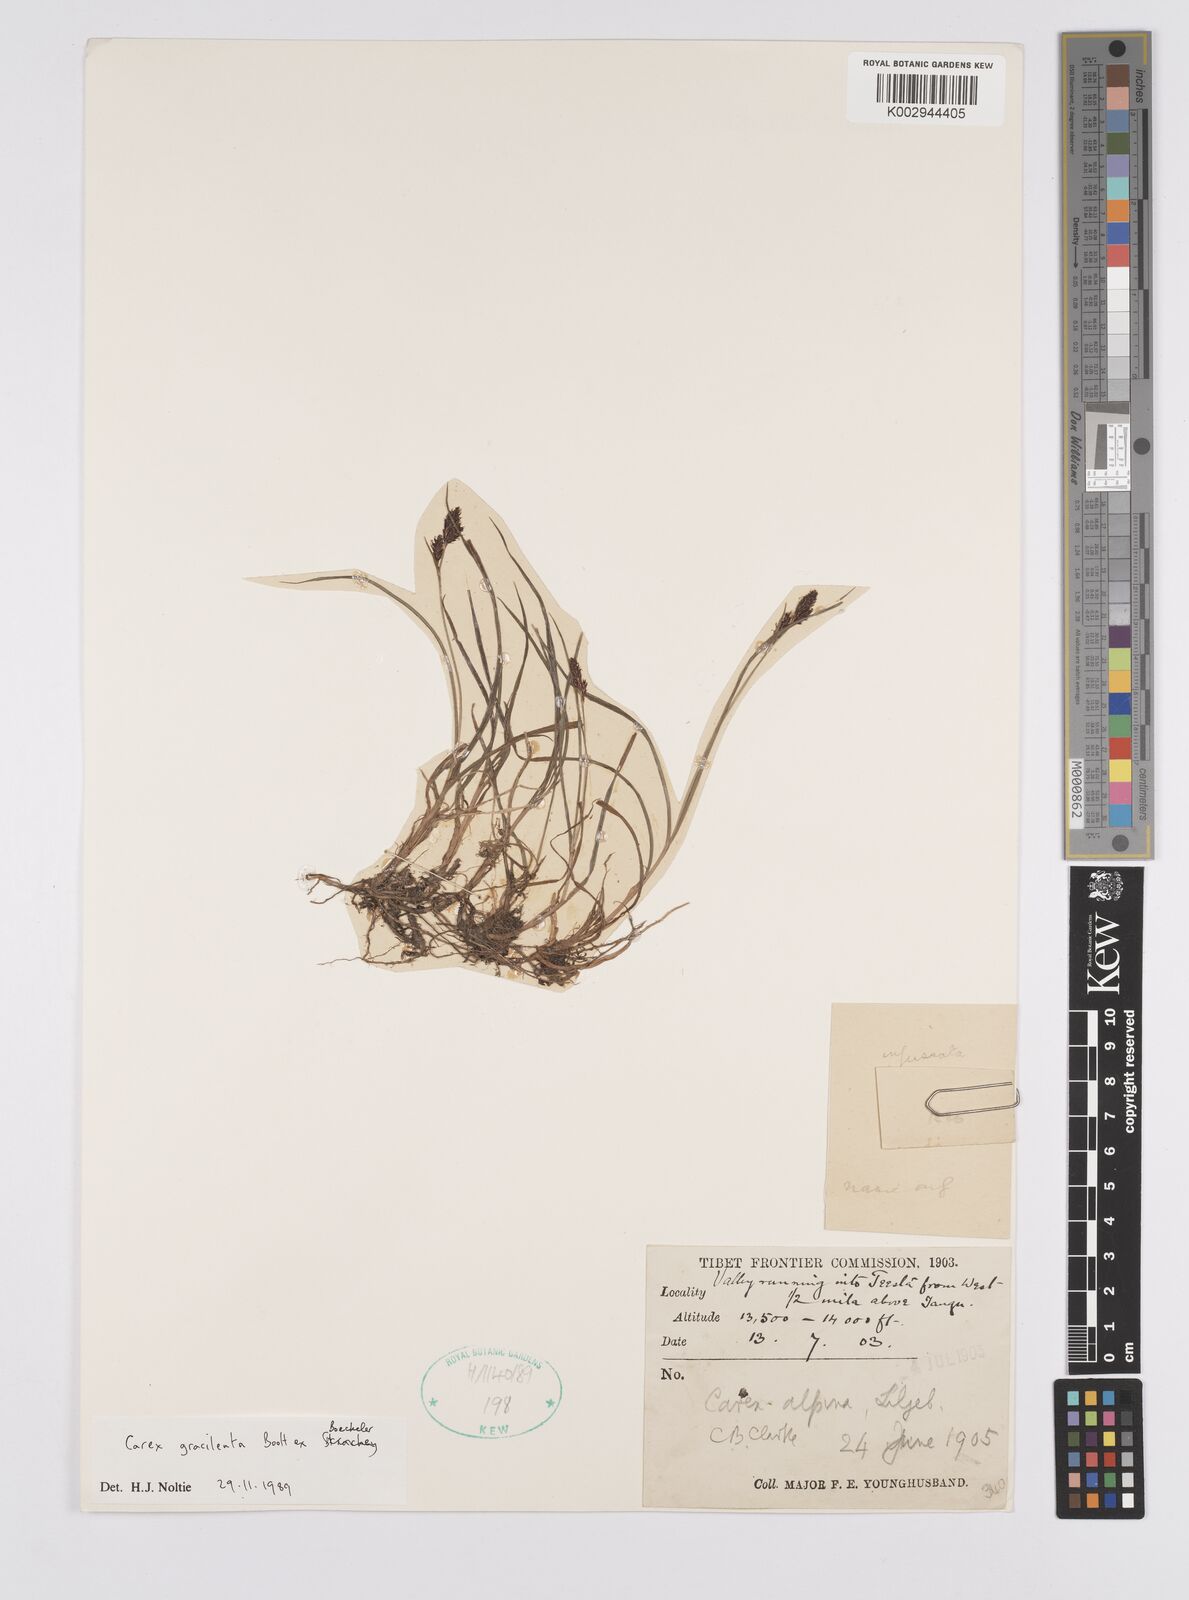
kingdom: Plantae
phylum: Tracheophyta
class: Liliopsida
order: Poales
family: Cyperaceae
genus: Carex
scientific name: Carex norvegica
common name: Close-headed alpine-sedge
